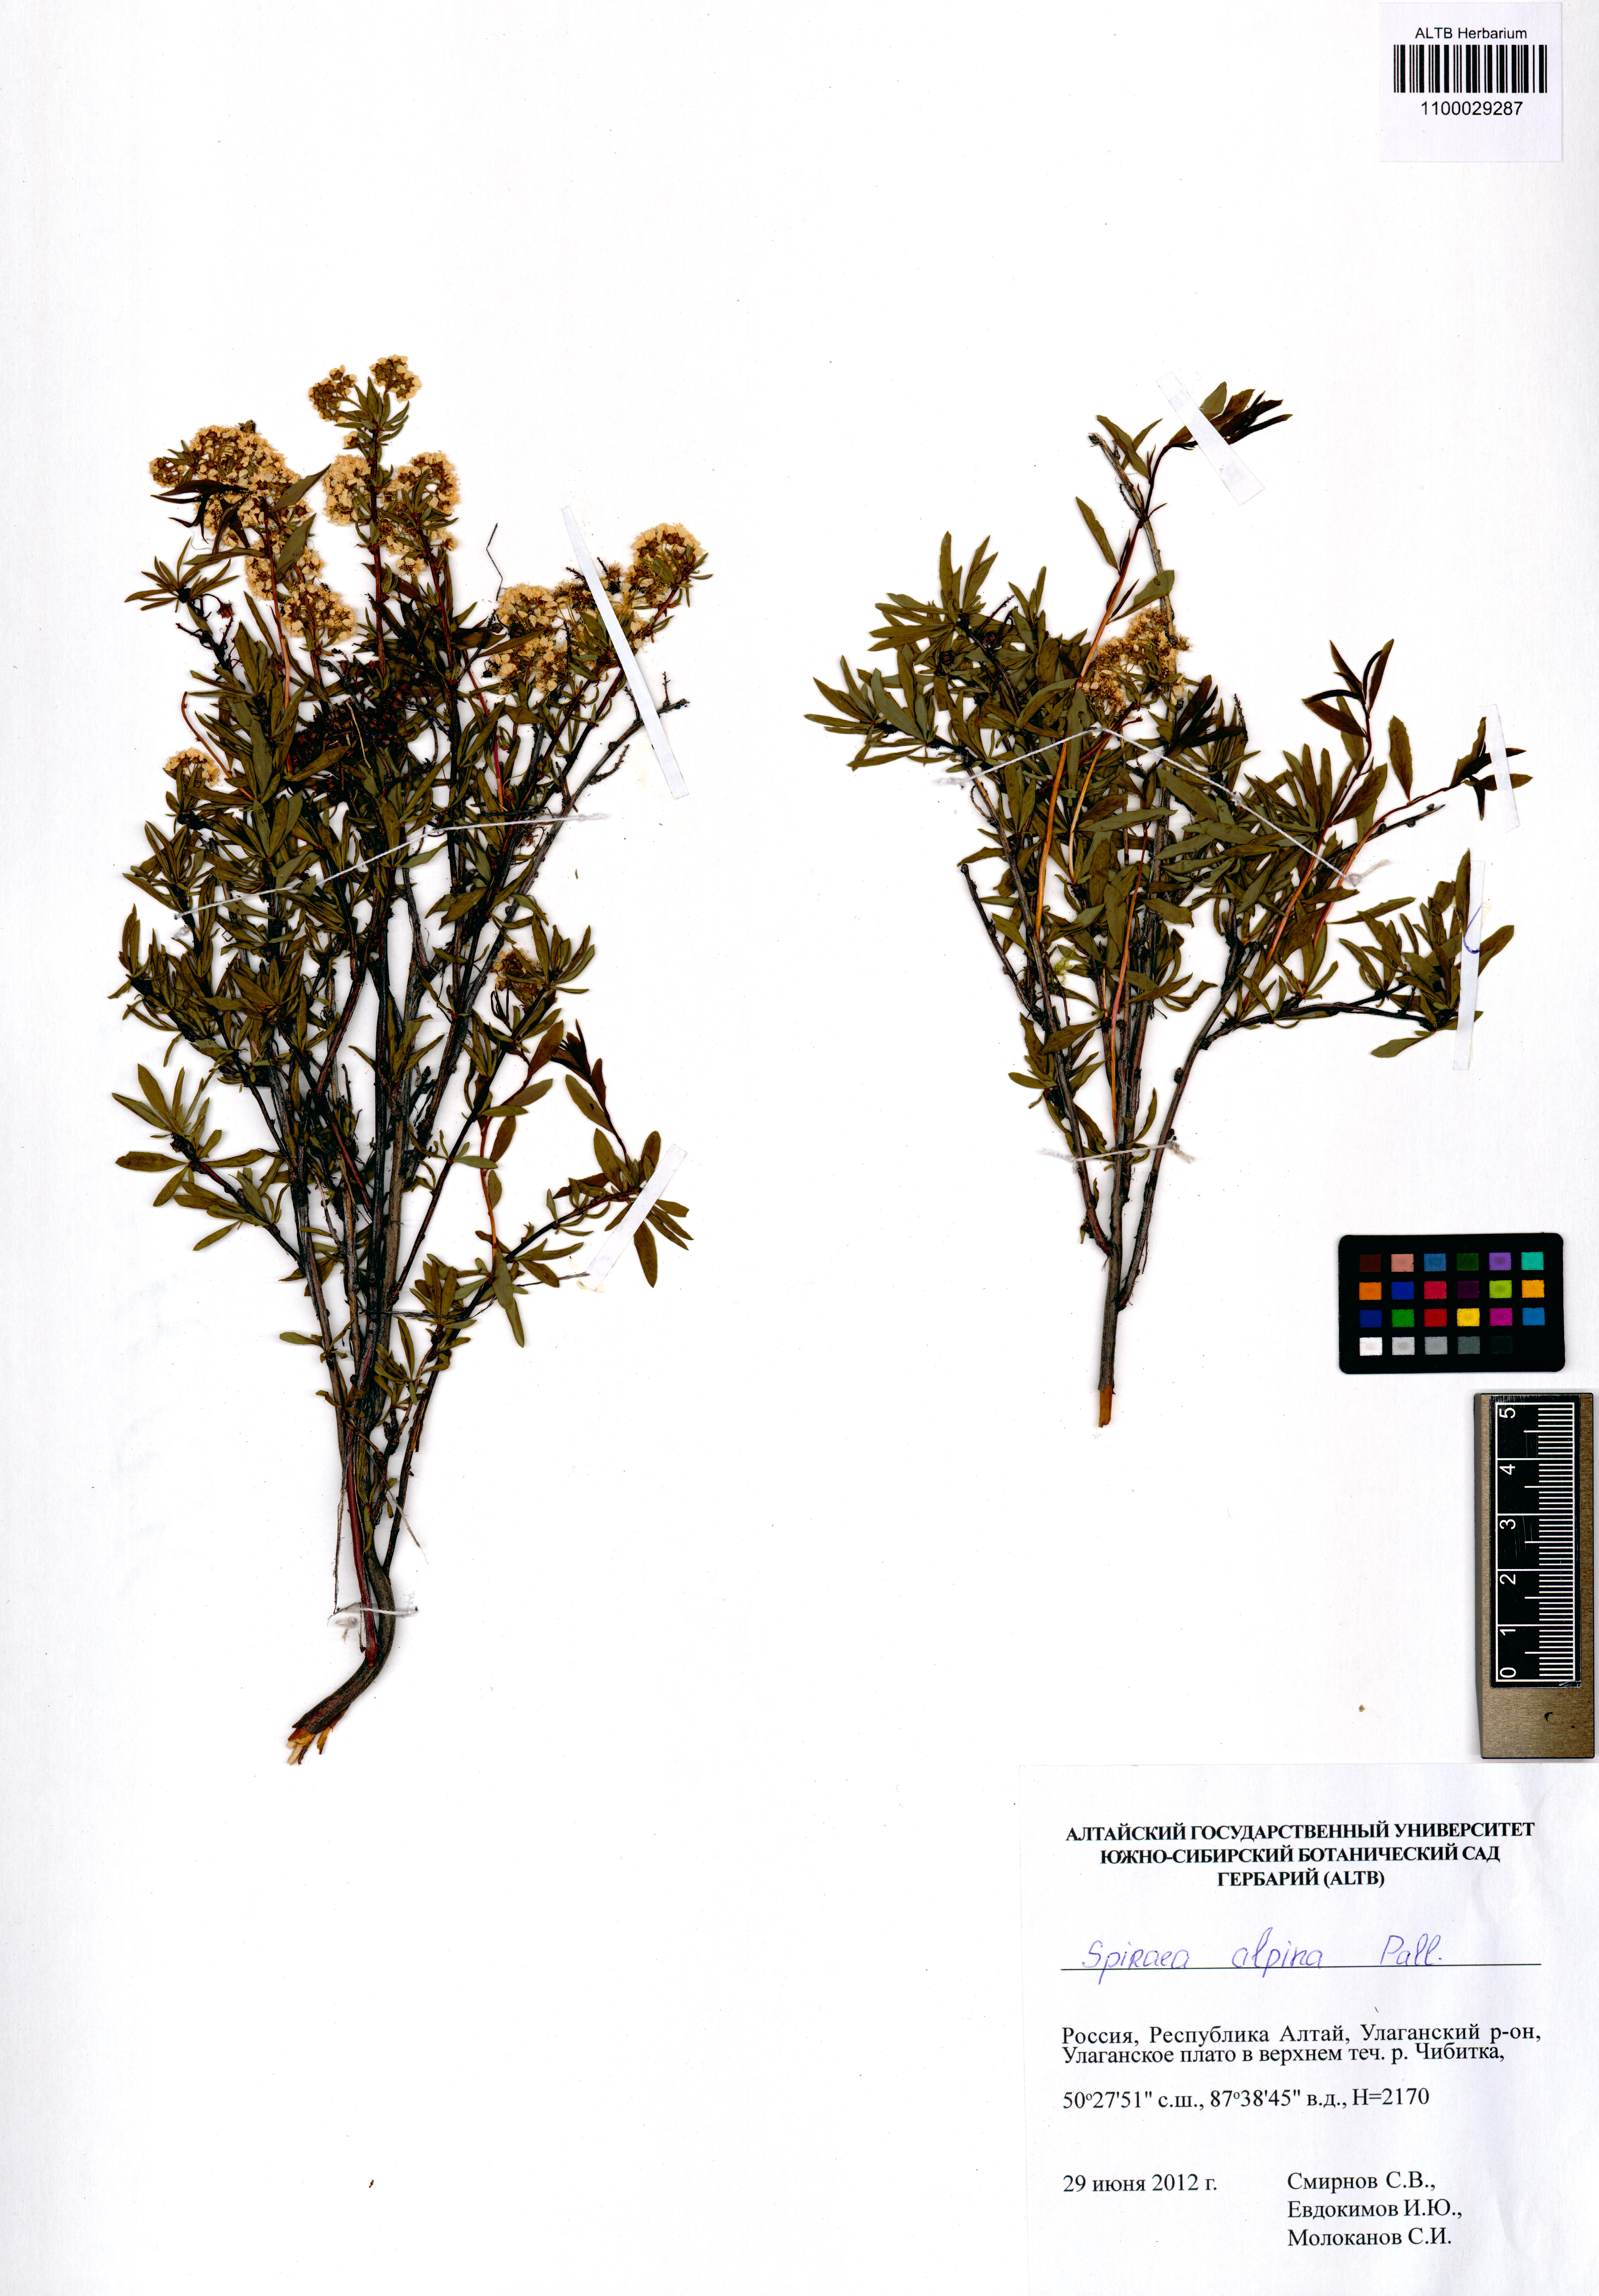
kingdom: Plantae
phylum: Tracheophyta
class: Magnoliopsida
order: Rosales
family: Rosaceae
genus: Spiraea
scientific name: Spiraea alpina
